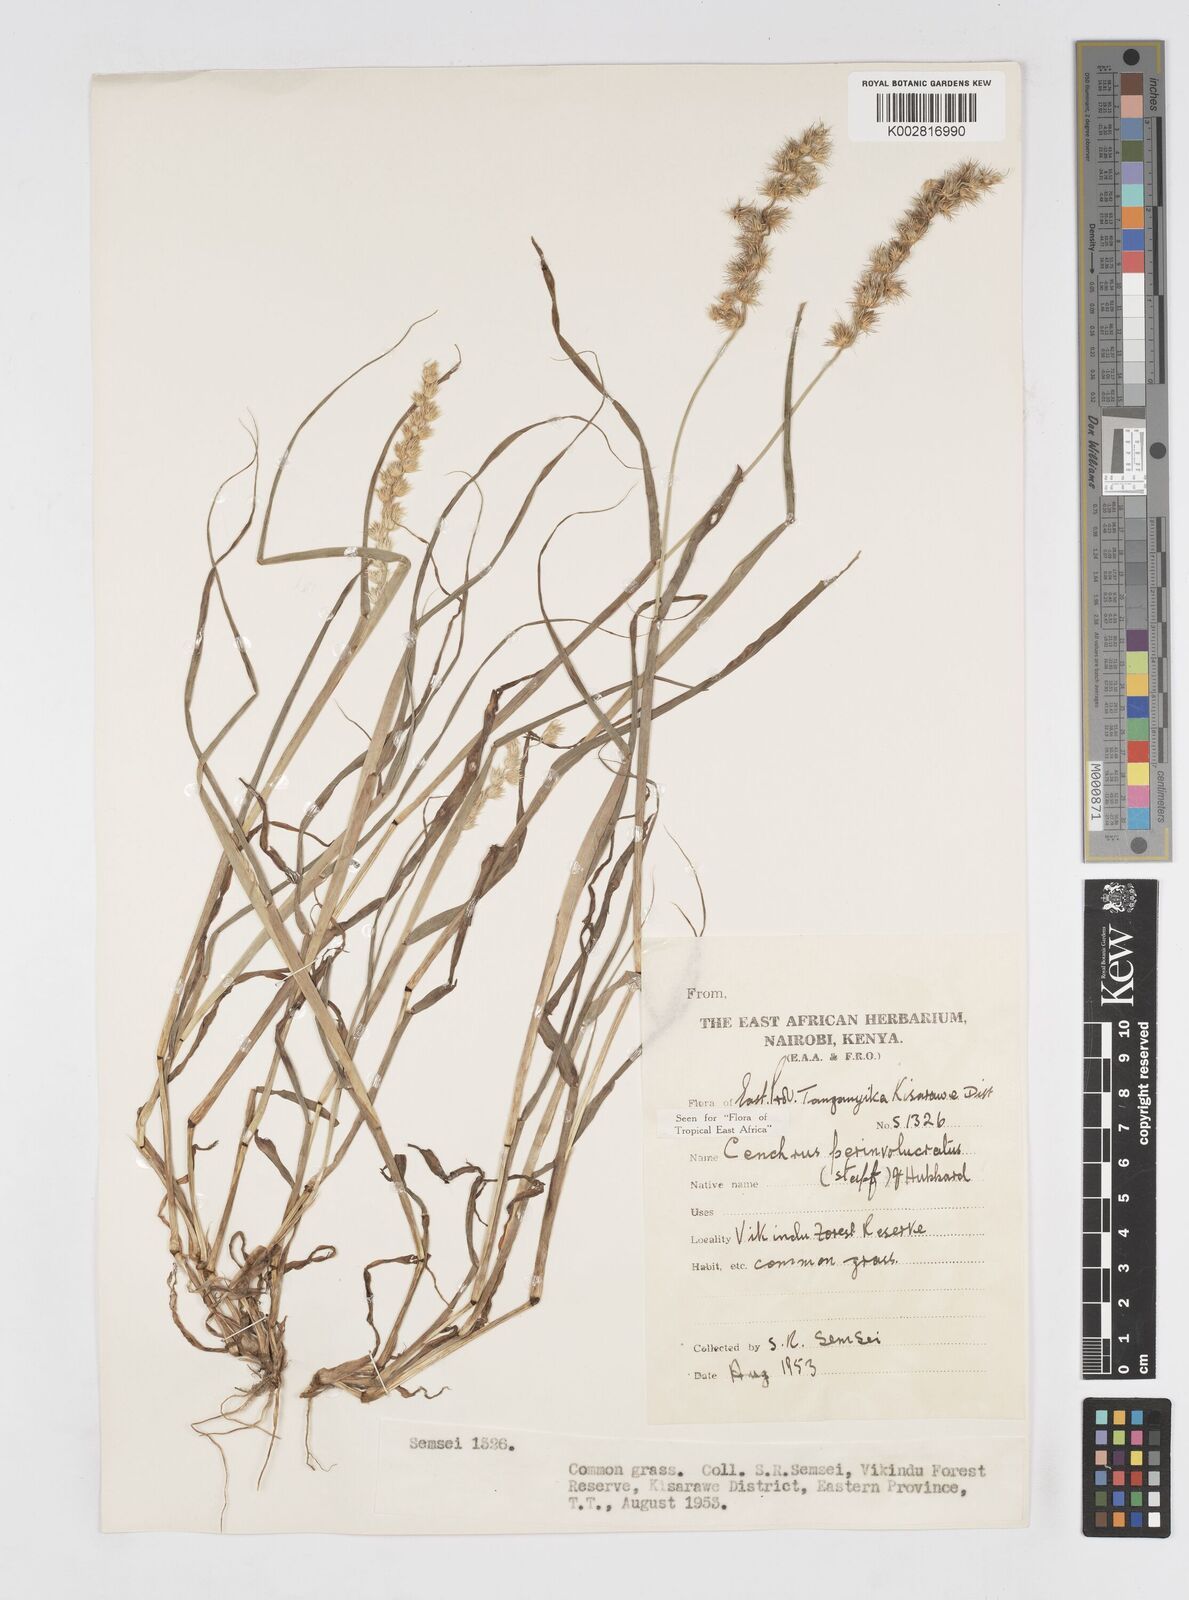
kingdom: Plantae
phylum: Tracheophyta
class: Liliopsida
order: Poales
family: Poaceae
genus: Cenchrus
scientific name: Cenchrus biflorus
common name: Indian sandbur
